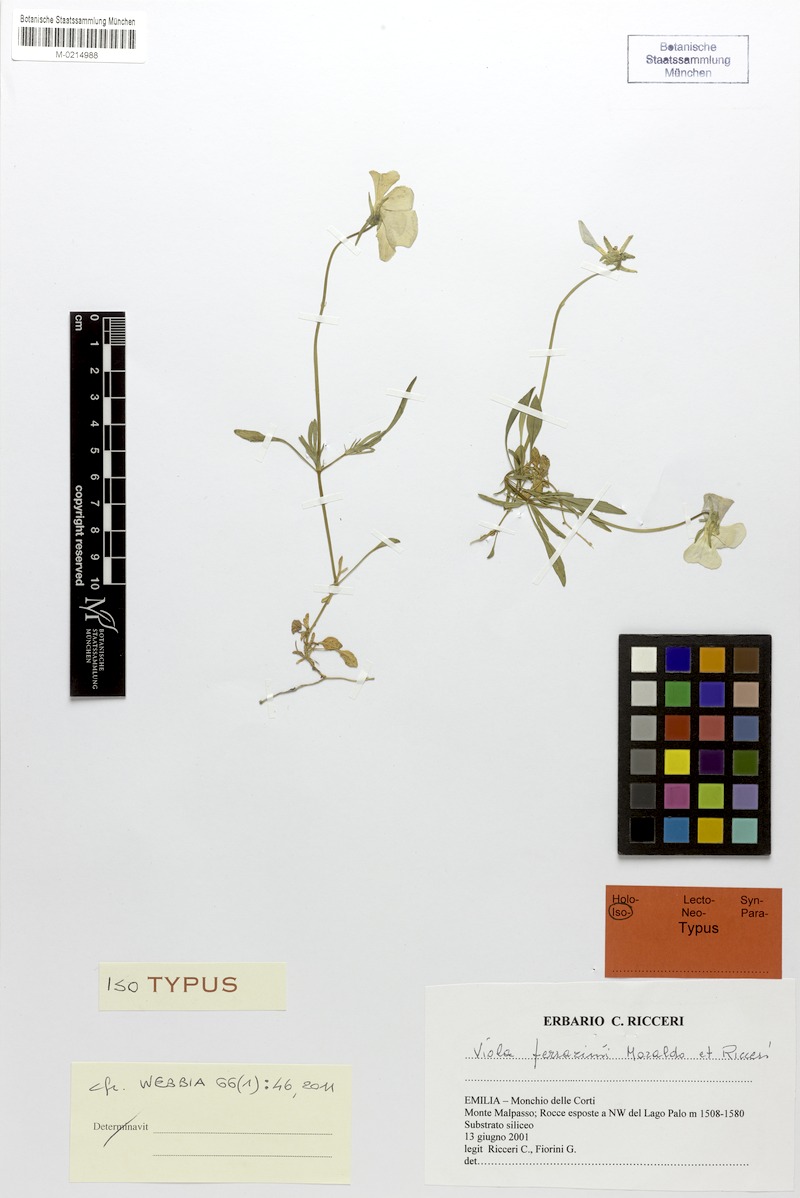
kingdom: Plantae
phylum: Tracheophyta
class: Magnoliopsida
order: Malpighiales
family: Violaceae
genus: Viola
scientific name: Viola ferrarinii
